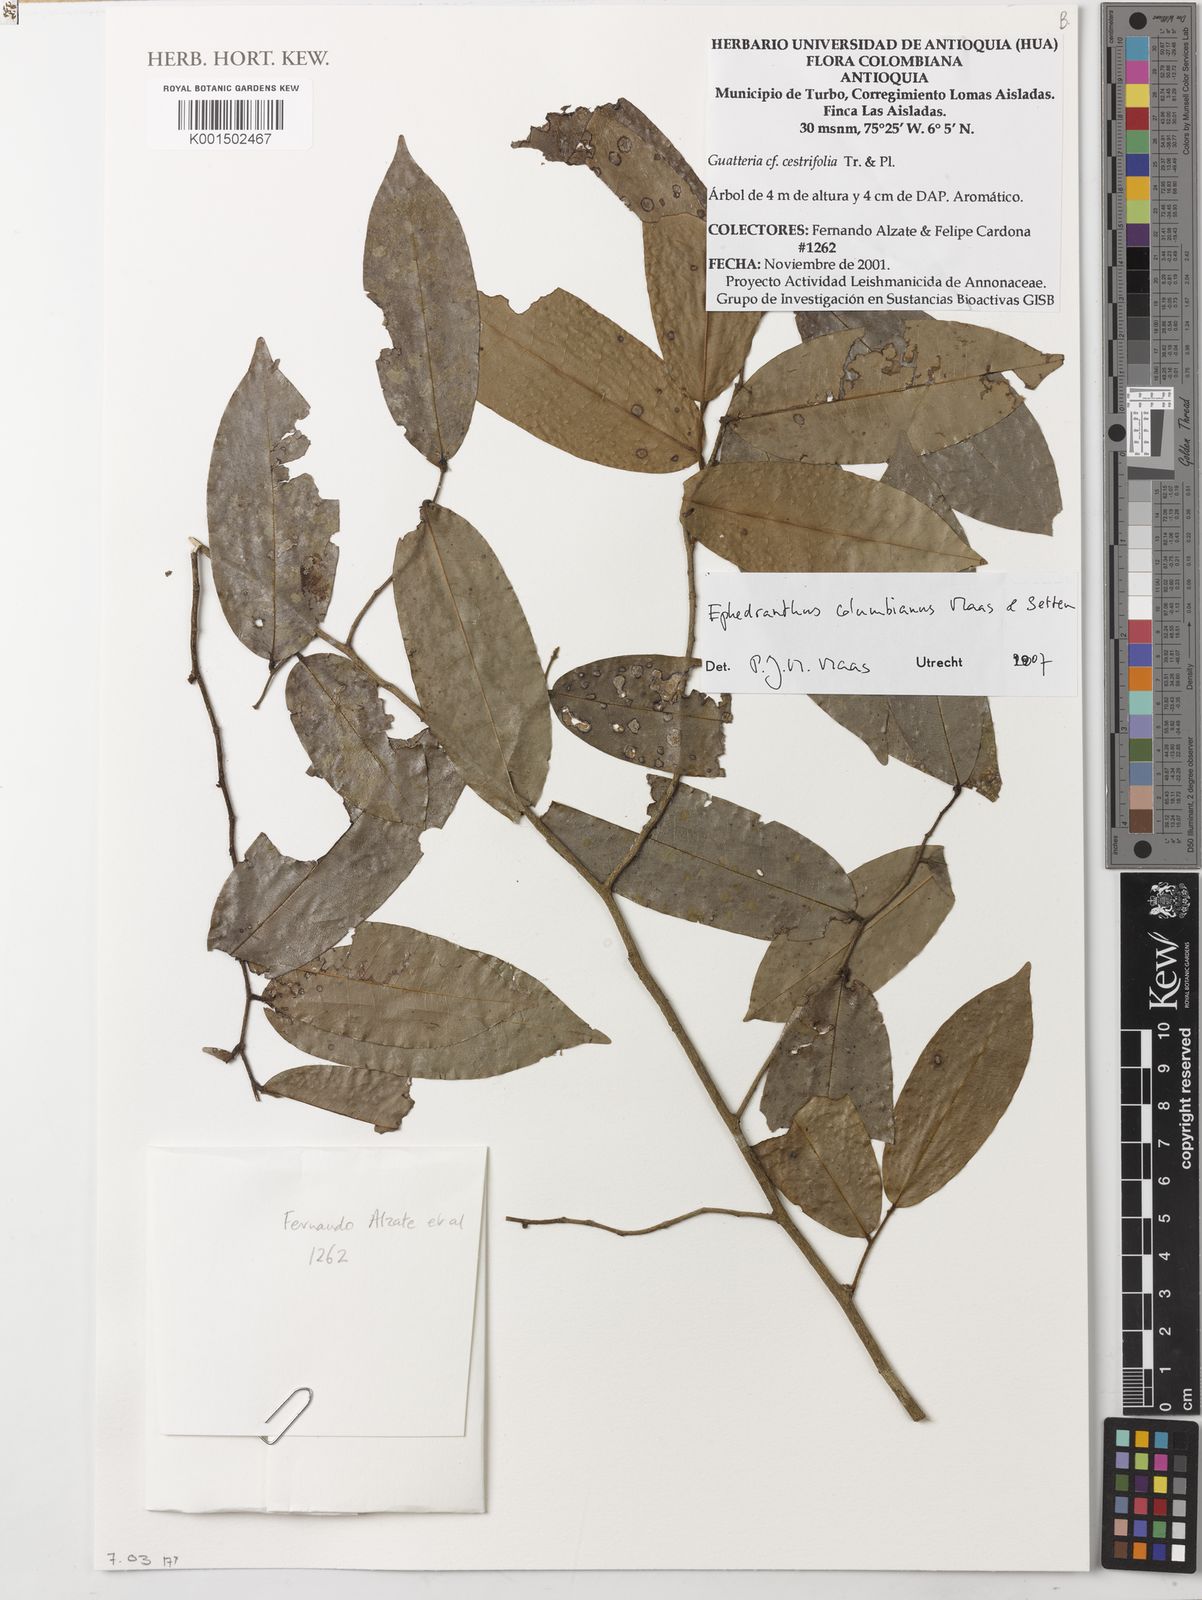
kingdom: Plantae
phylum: Tracheophyta
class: Magnoliopsida
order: Magnoliales
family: Annonaceae
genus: Ephedranthus
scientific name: Ephedranthus columbianus
